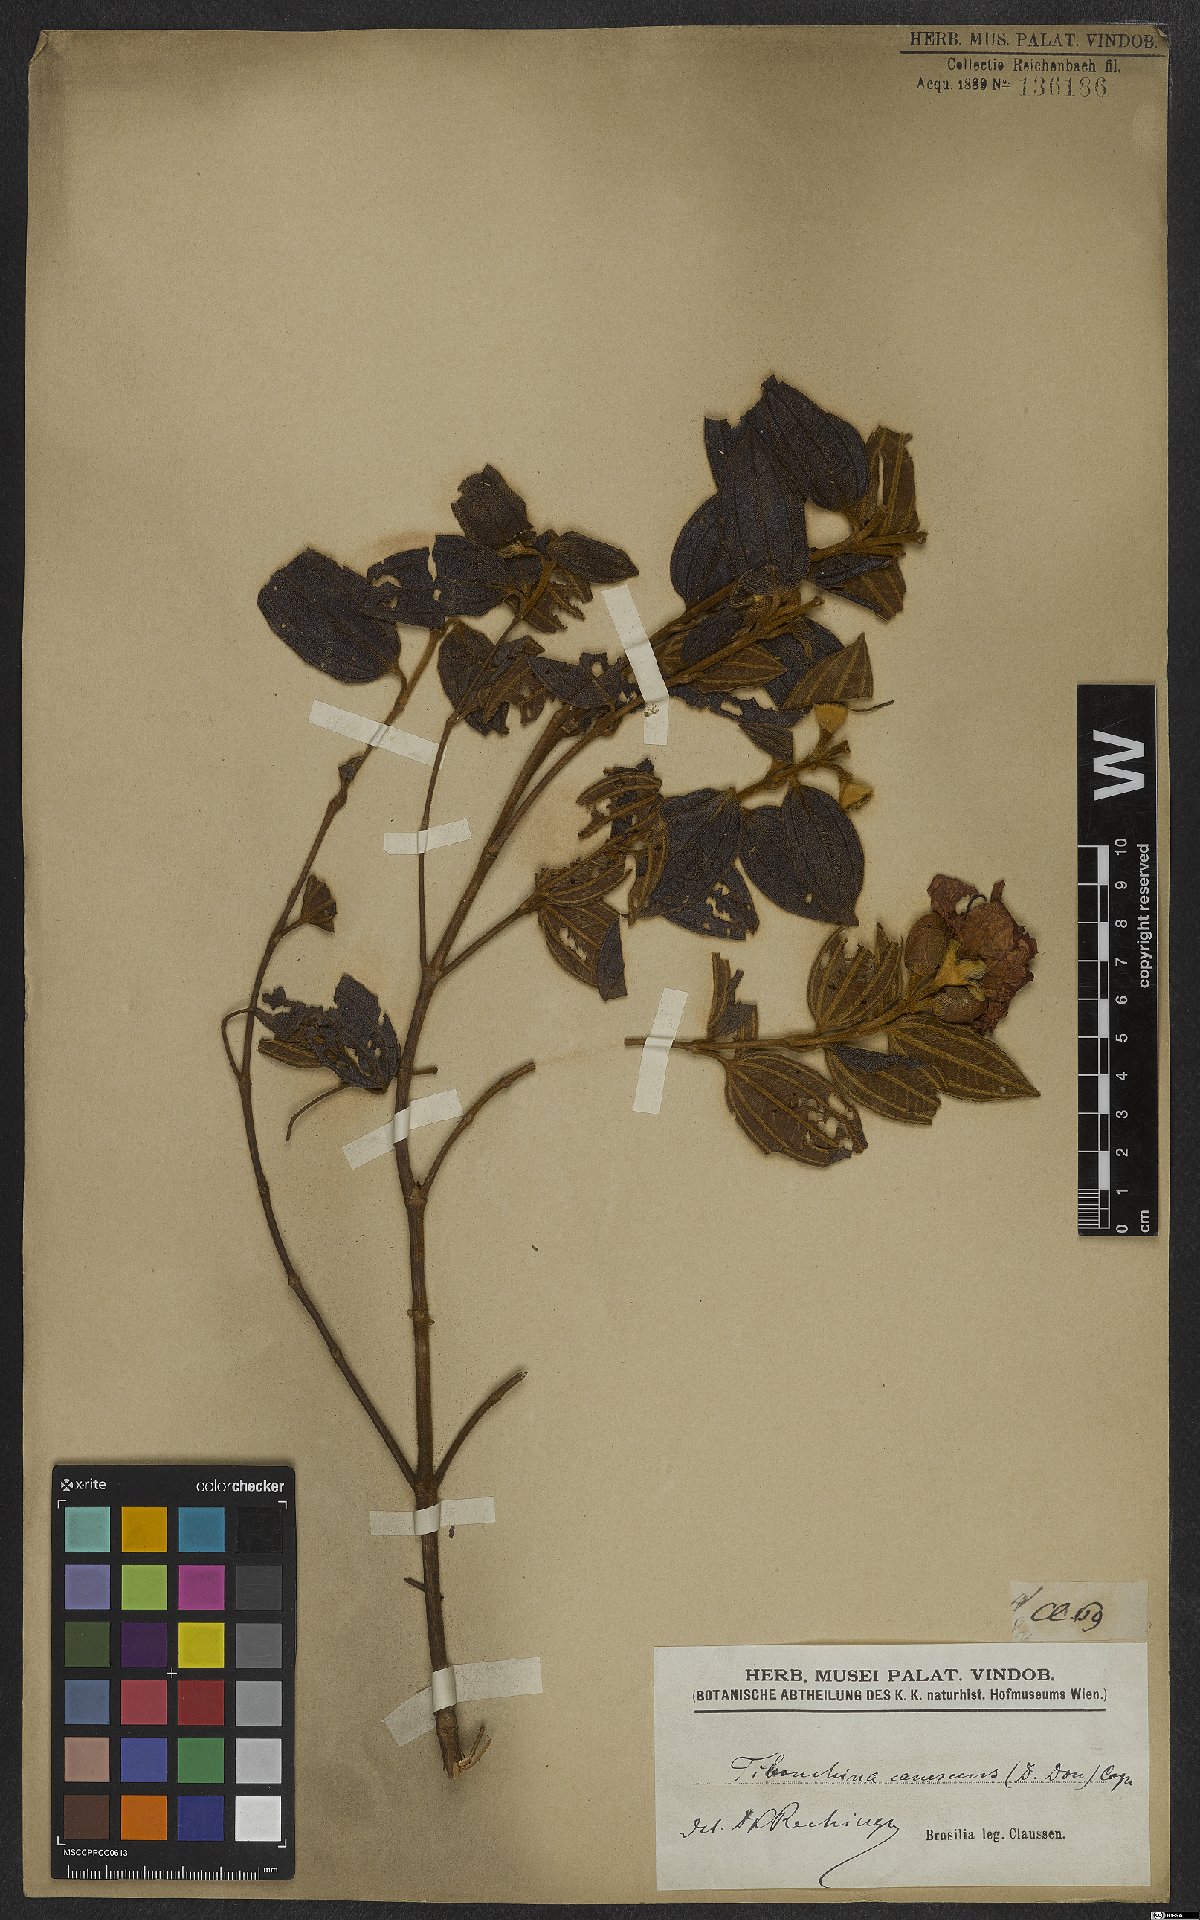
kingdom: Plantae
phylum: Tracheophyta
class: Magnoliopsida
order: Myrtales
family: Melastomataceae
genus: Pleroma
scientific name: Pleroma canescens
